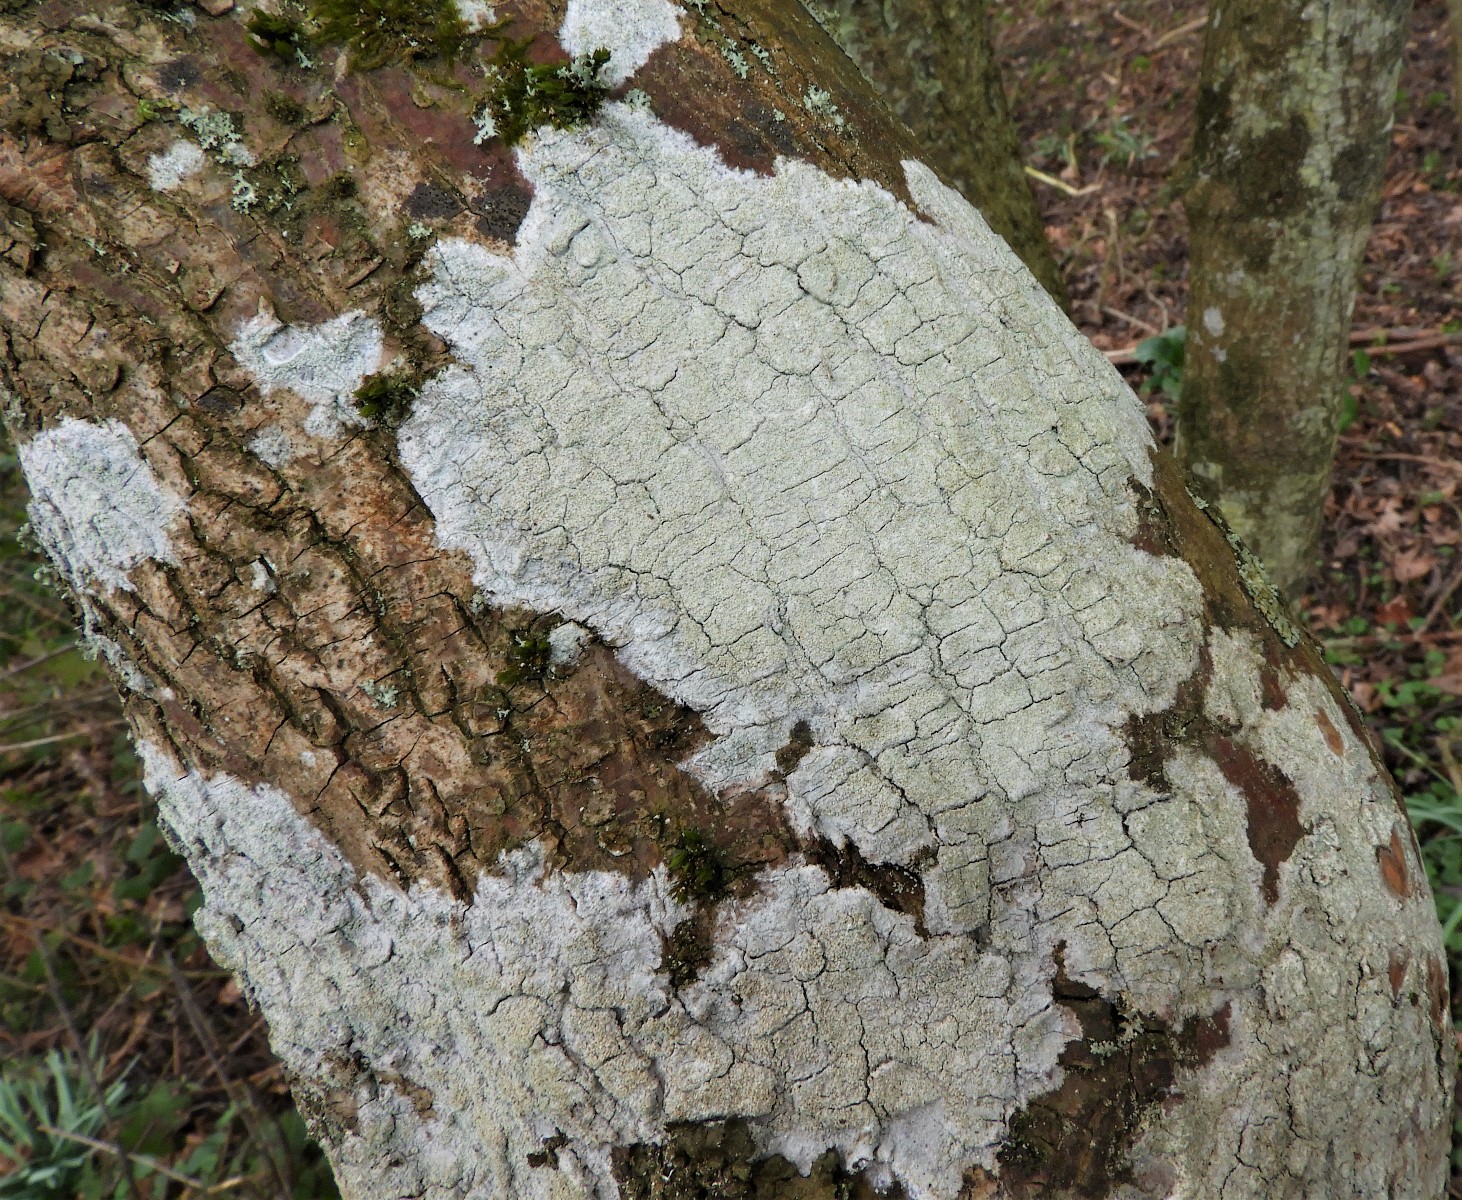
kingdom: Fungi
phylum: Ascomycota
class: Lecanoromycetes
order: Lecanorales
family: Haematommataceae
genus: Haematomma
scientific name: Haematomma ochroleucum
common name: gul trådkantlav
